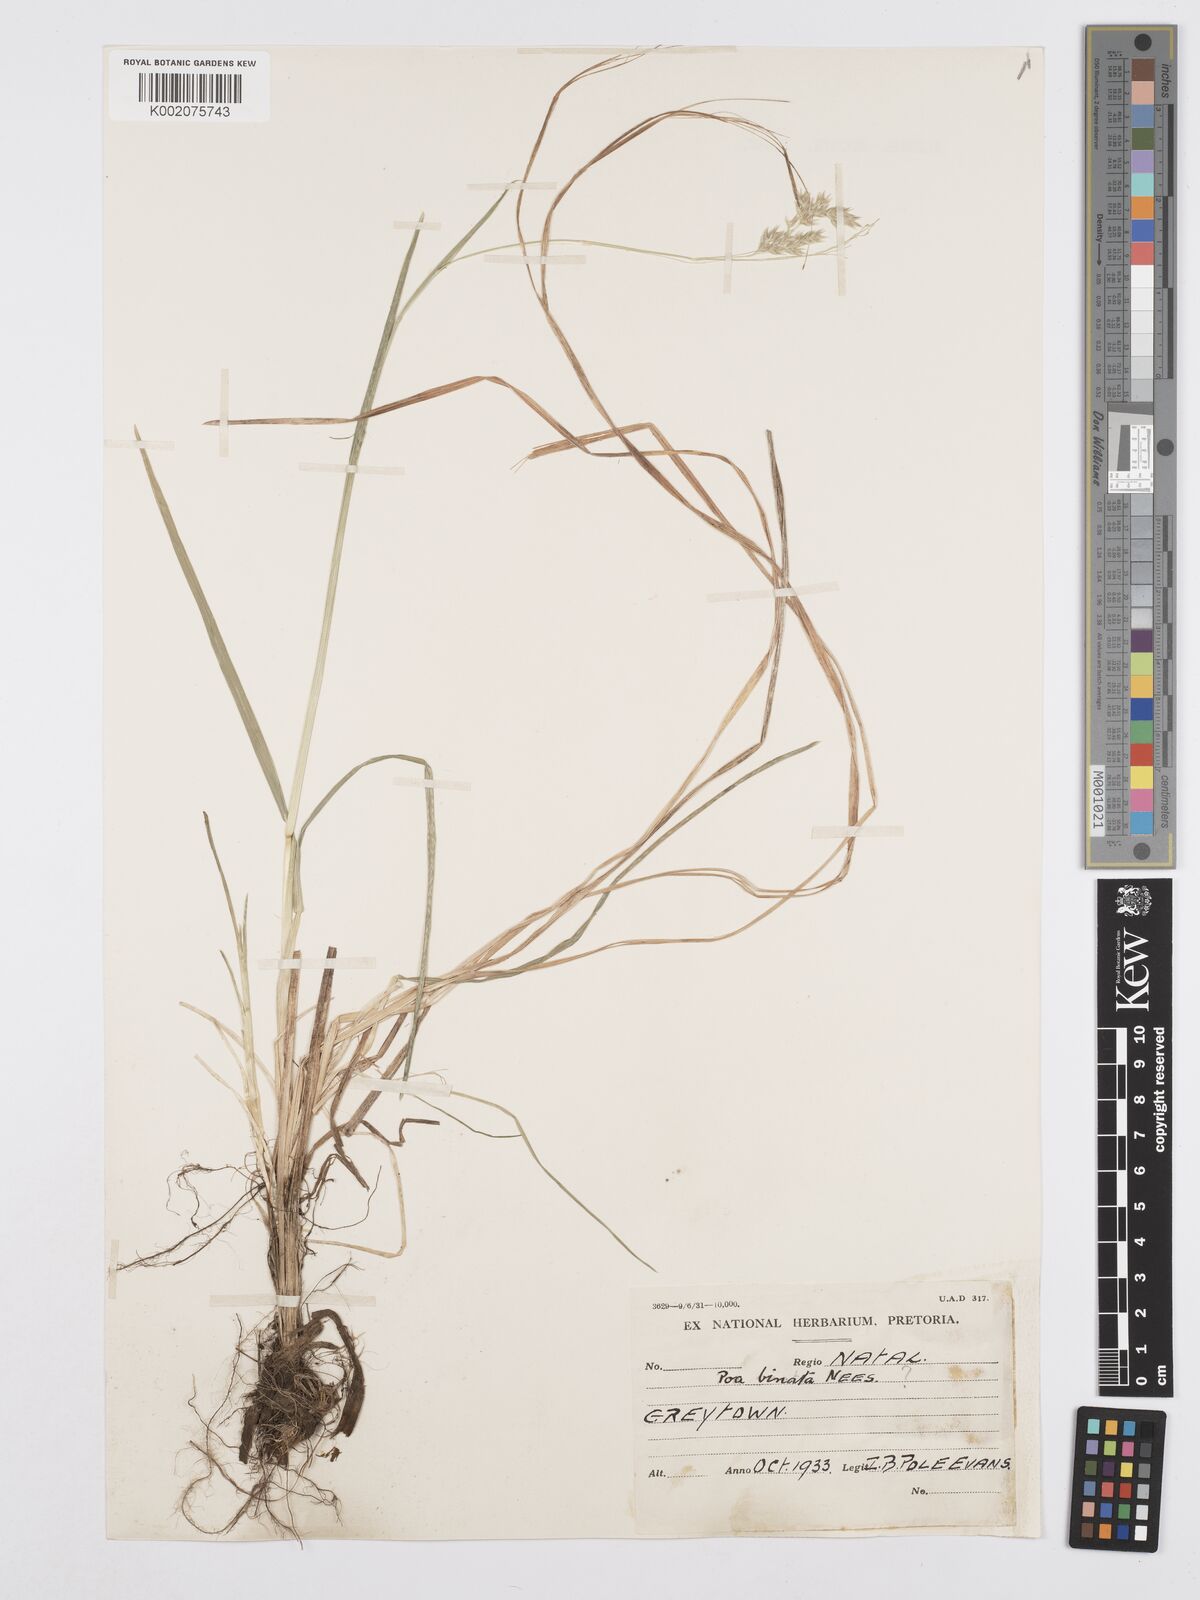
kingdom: Plantae
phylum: Tracheophyta
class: Liliopsida
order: Poales
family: Poaceae
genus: Poa
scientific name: Poa binata
